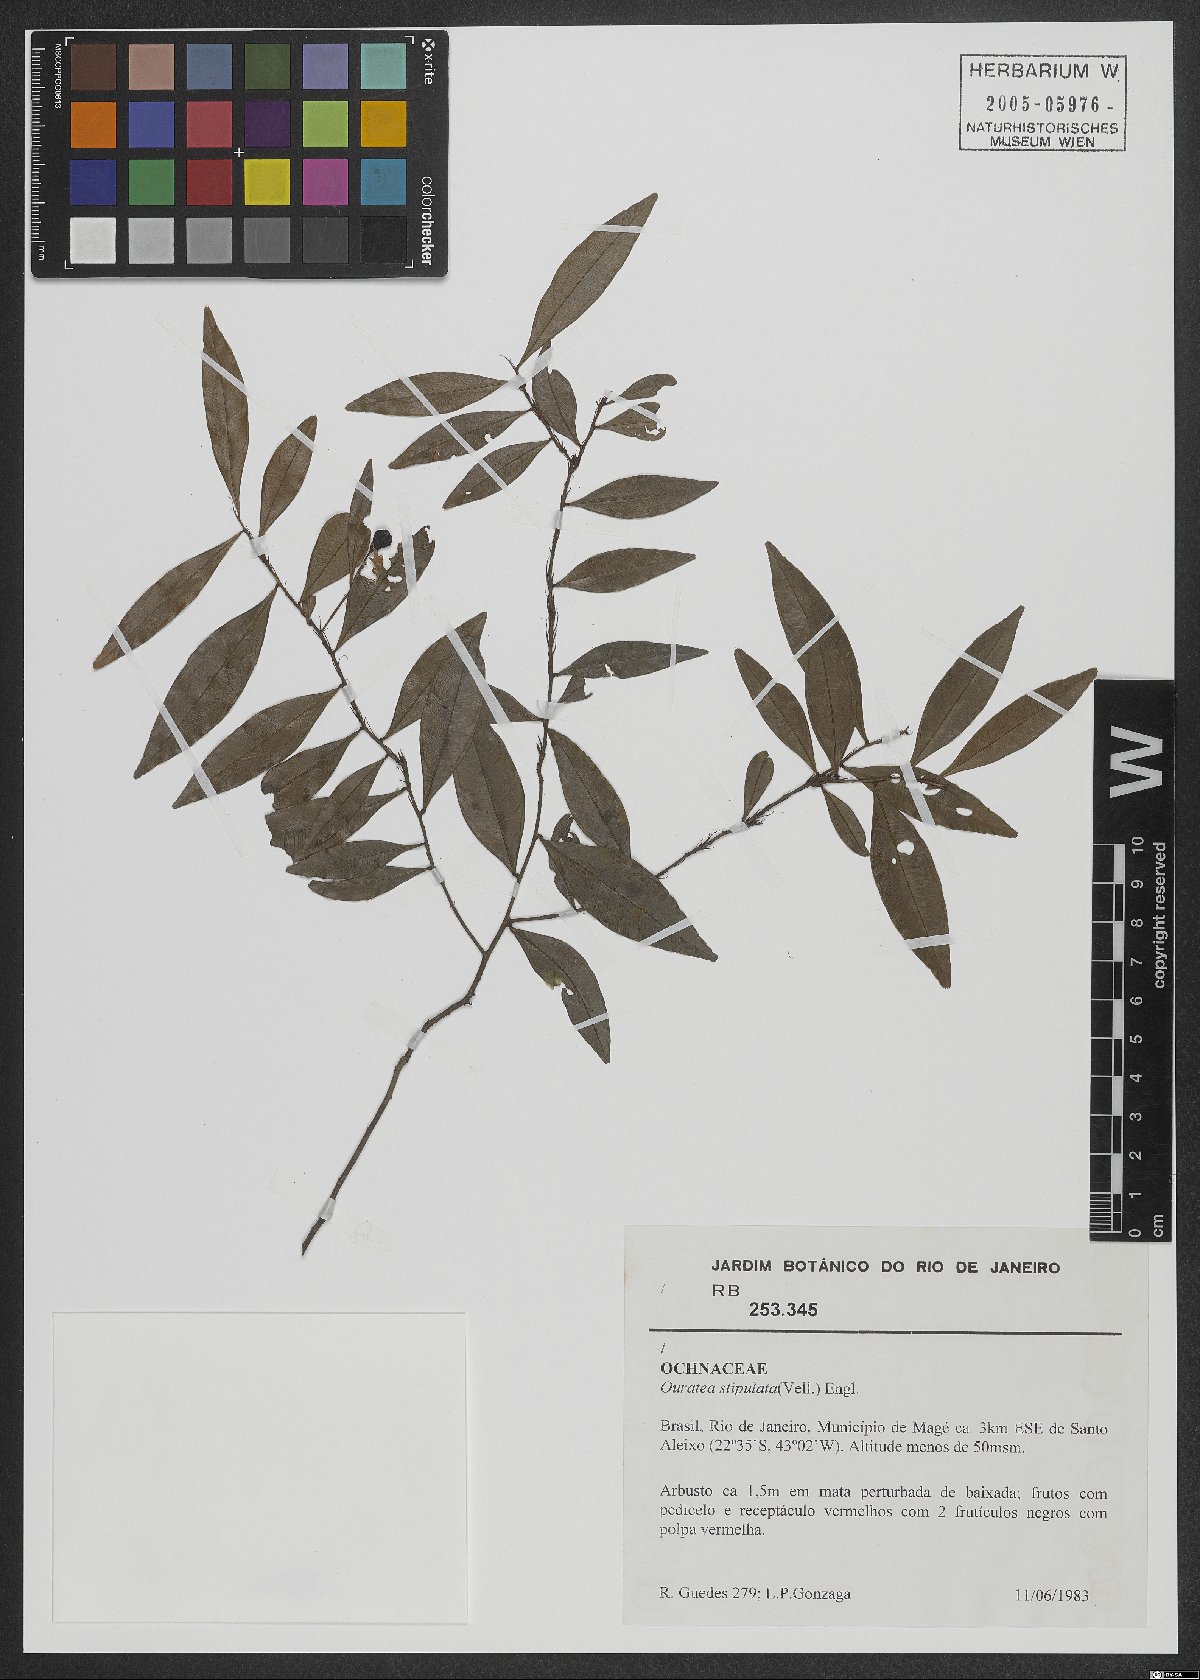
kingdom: Plantae
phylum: Tracheophyta
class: Magnoliopsida
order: Malpighiales
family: Ochnaceae
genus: Ouratea
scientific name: Ouratea stipulata
